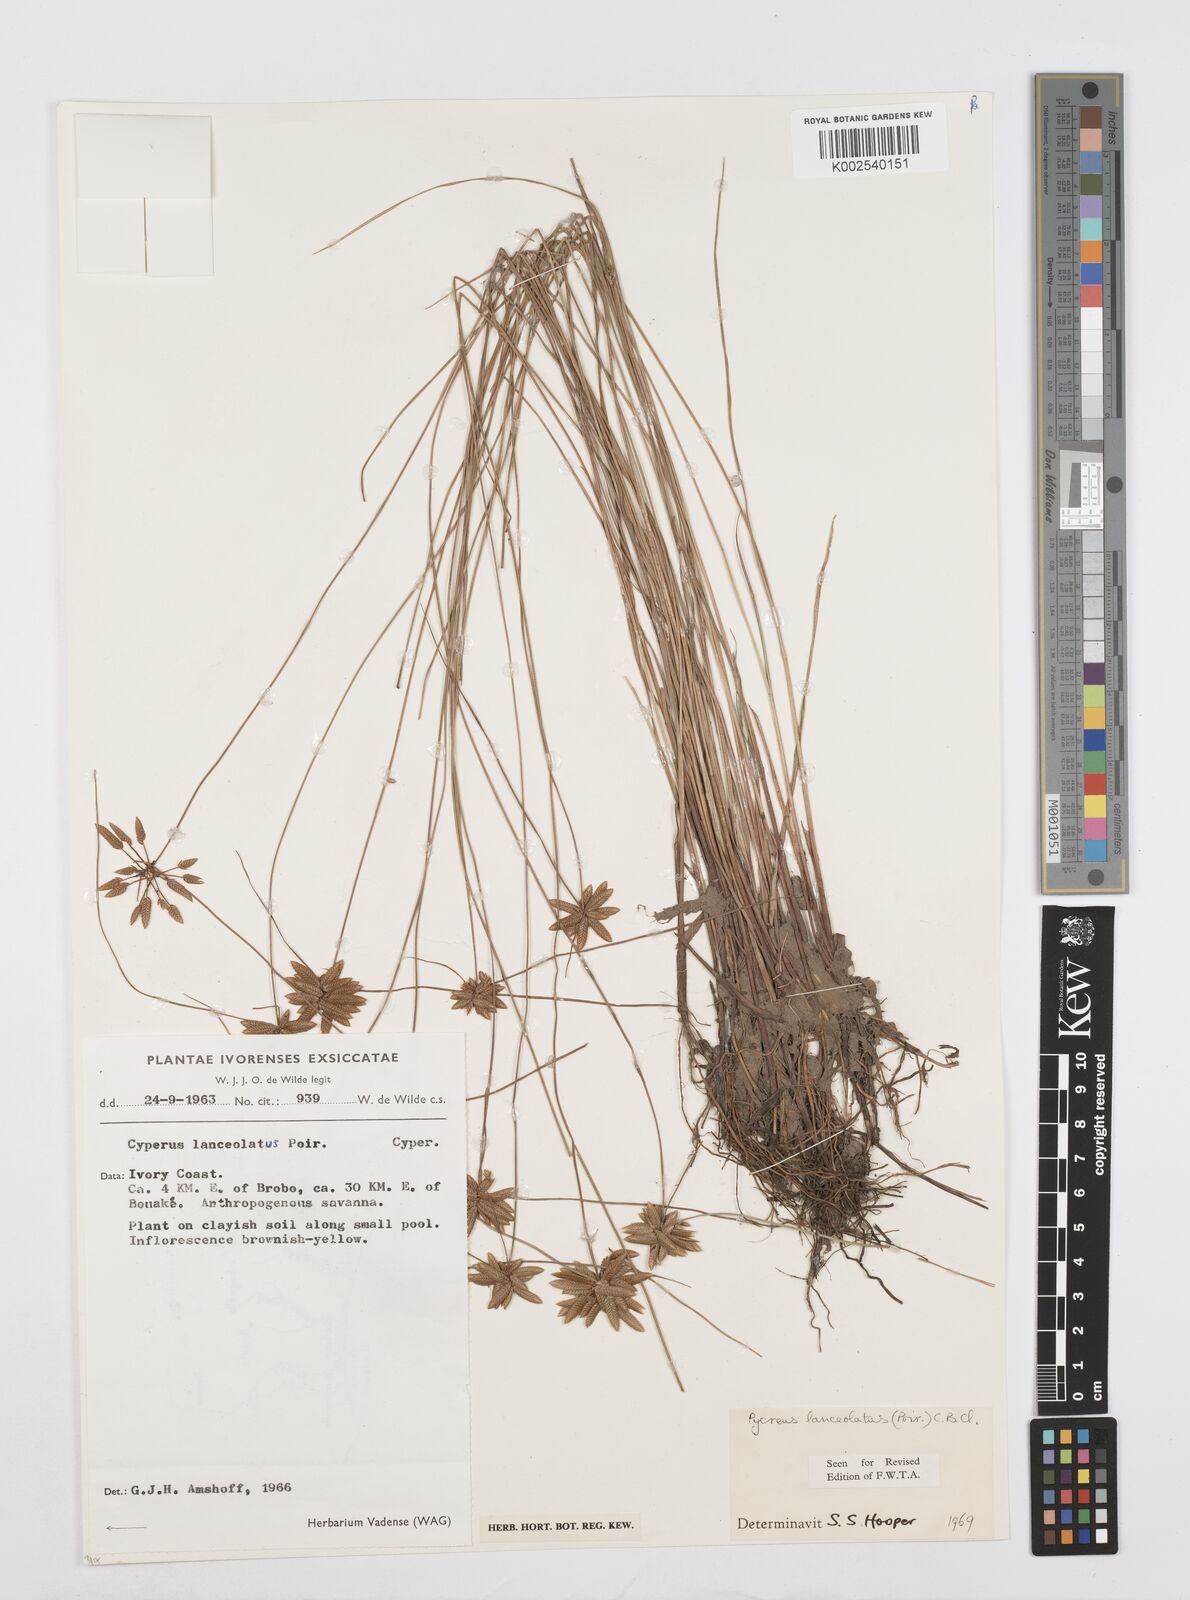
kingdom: Plantae
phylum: Tracheophyta
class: Liliopsida
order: Poales
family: Cyperaceae
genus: Cyperus
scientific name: Cyperus
